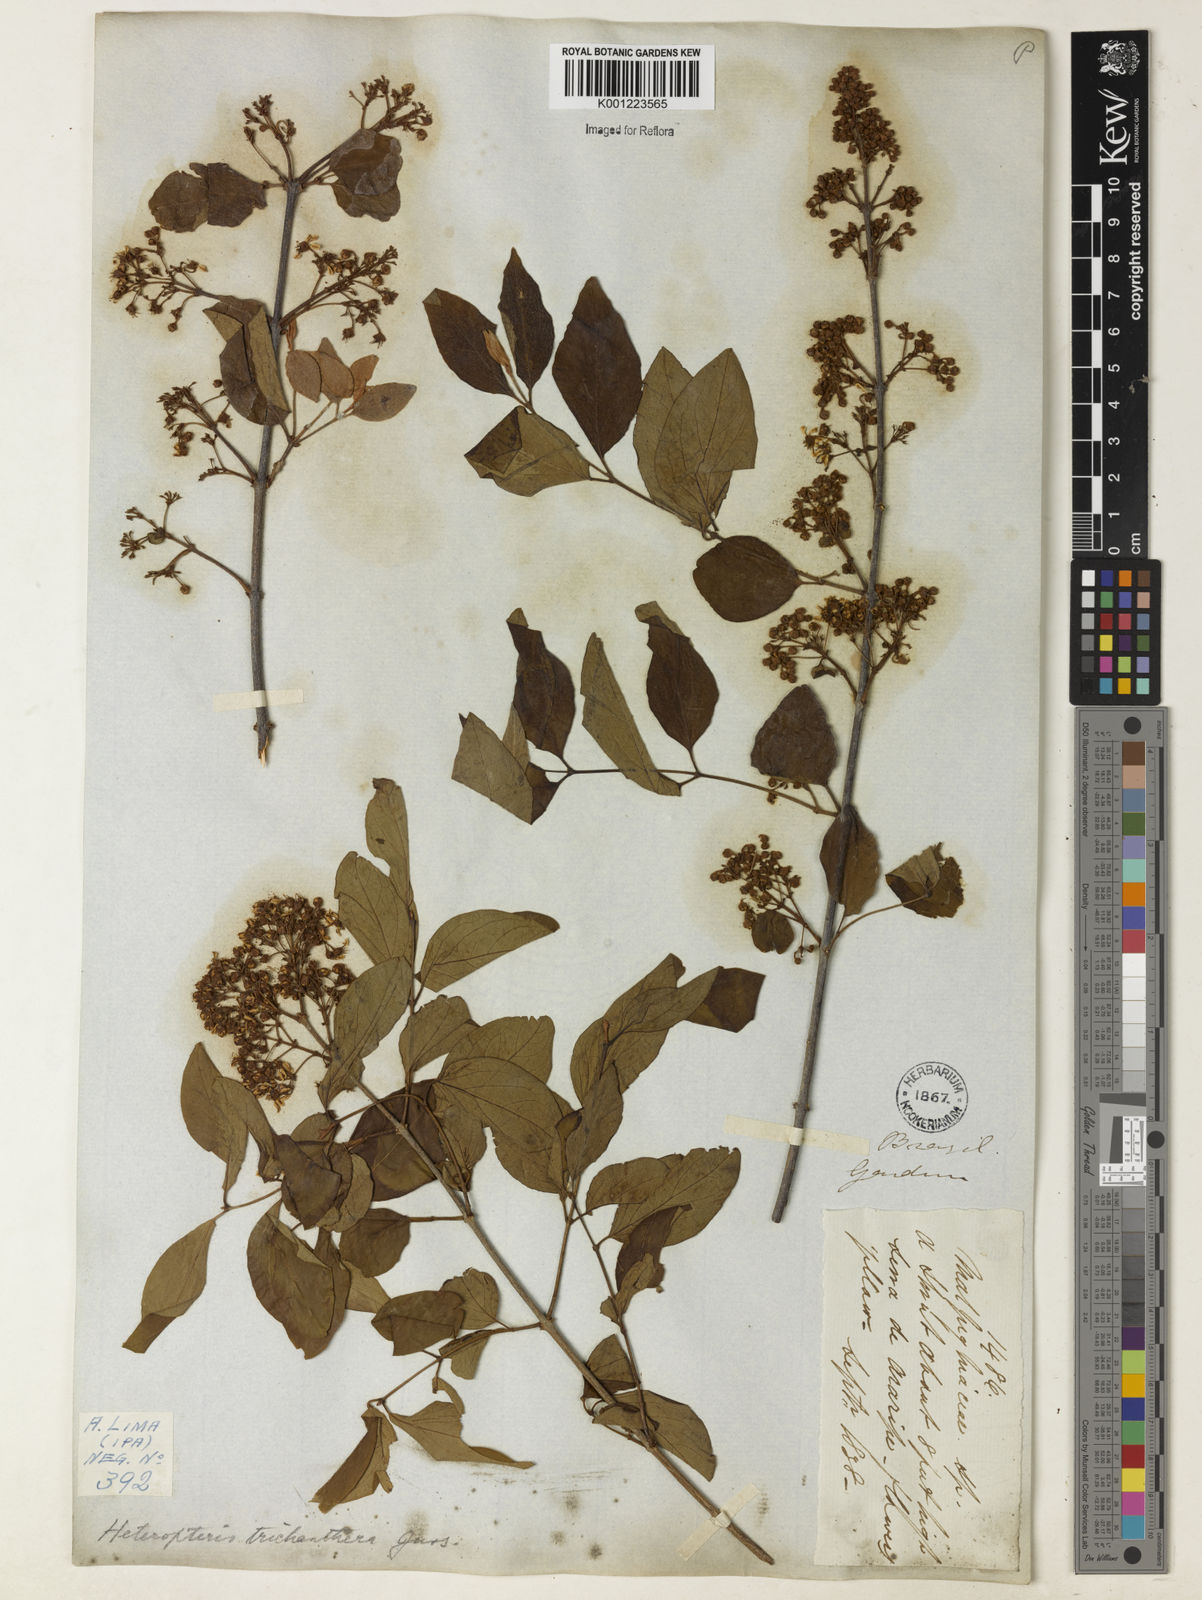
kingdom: Plantae
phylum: Tracheophyta
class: Magnoliopsida
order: Malpighiales
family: Malpighiaceae
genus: Heteropterys
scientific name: Heteropterys trichanthera
